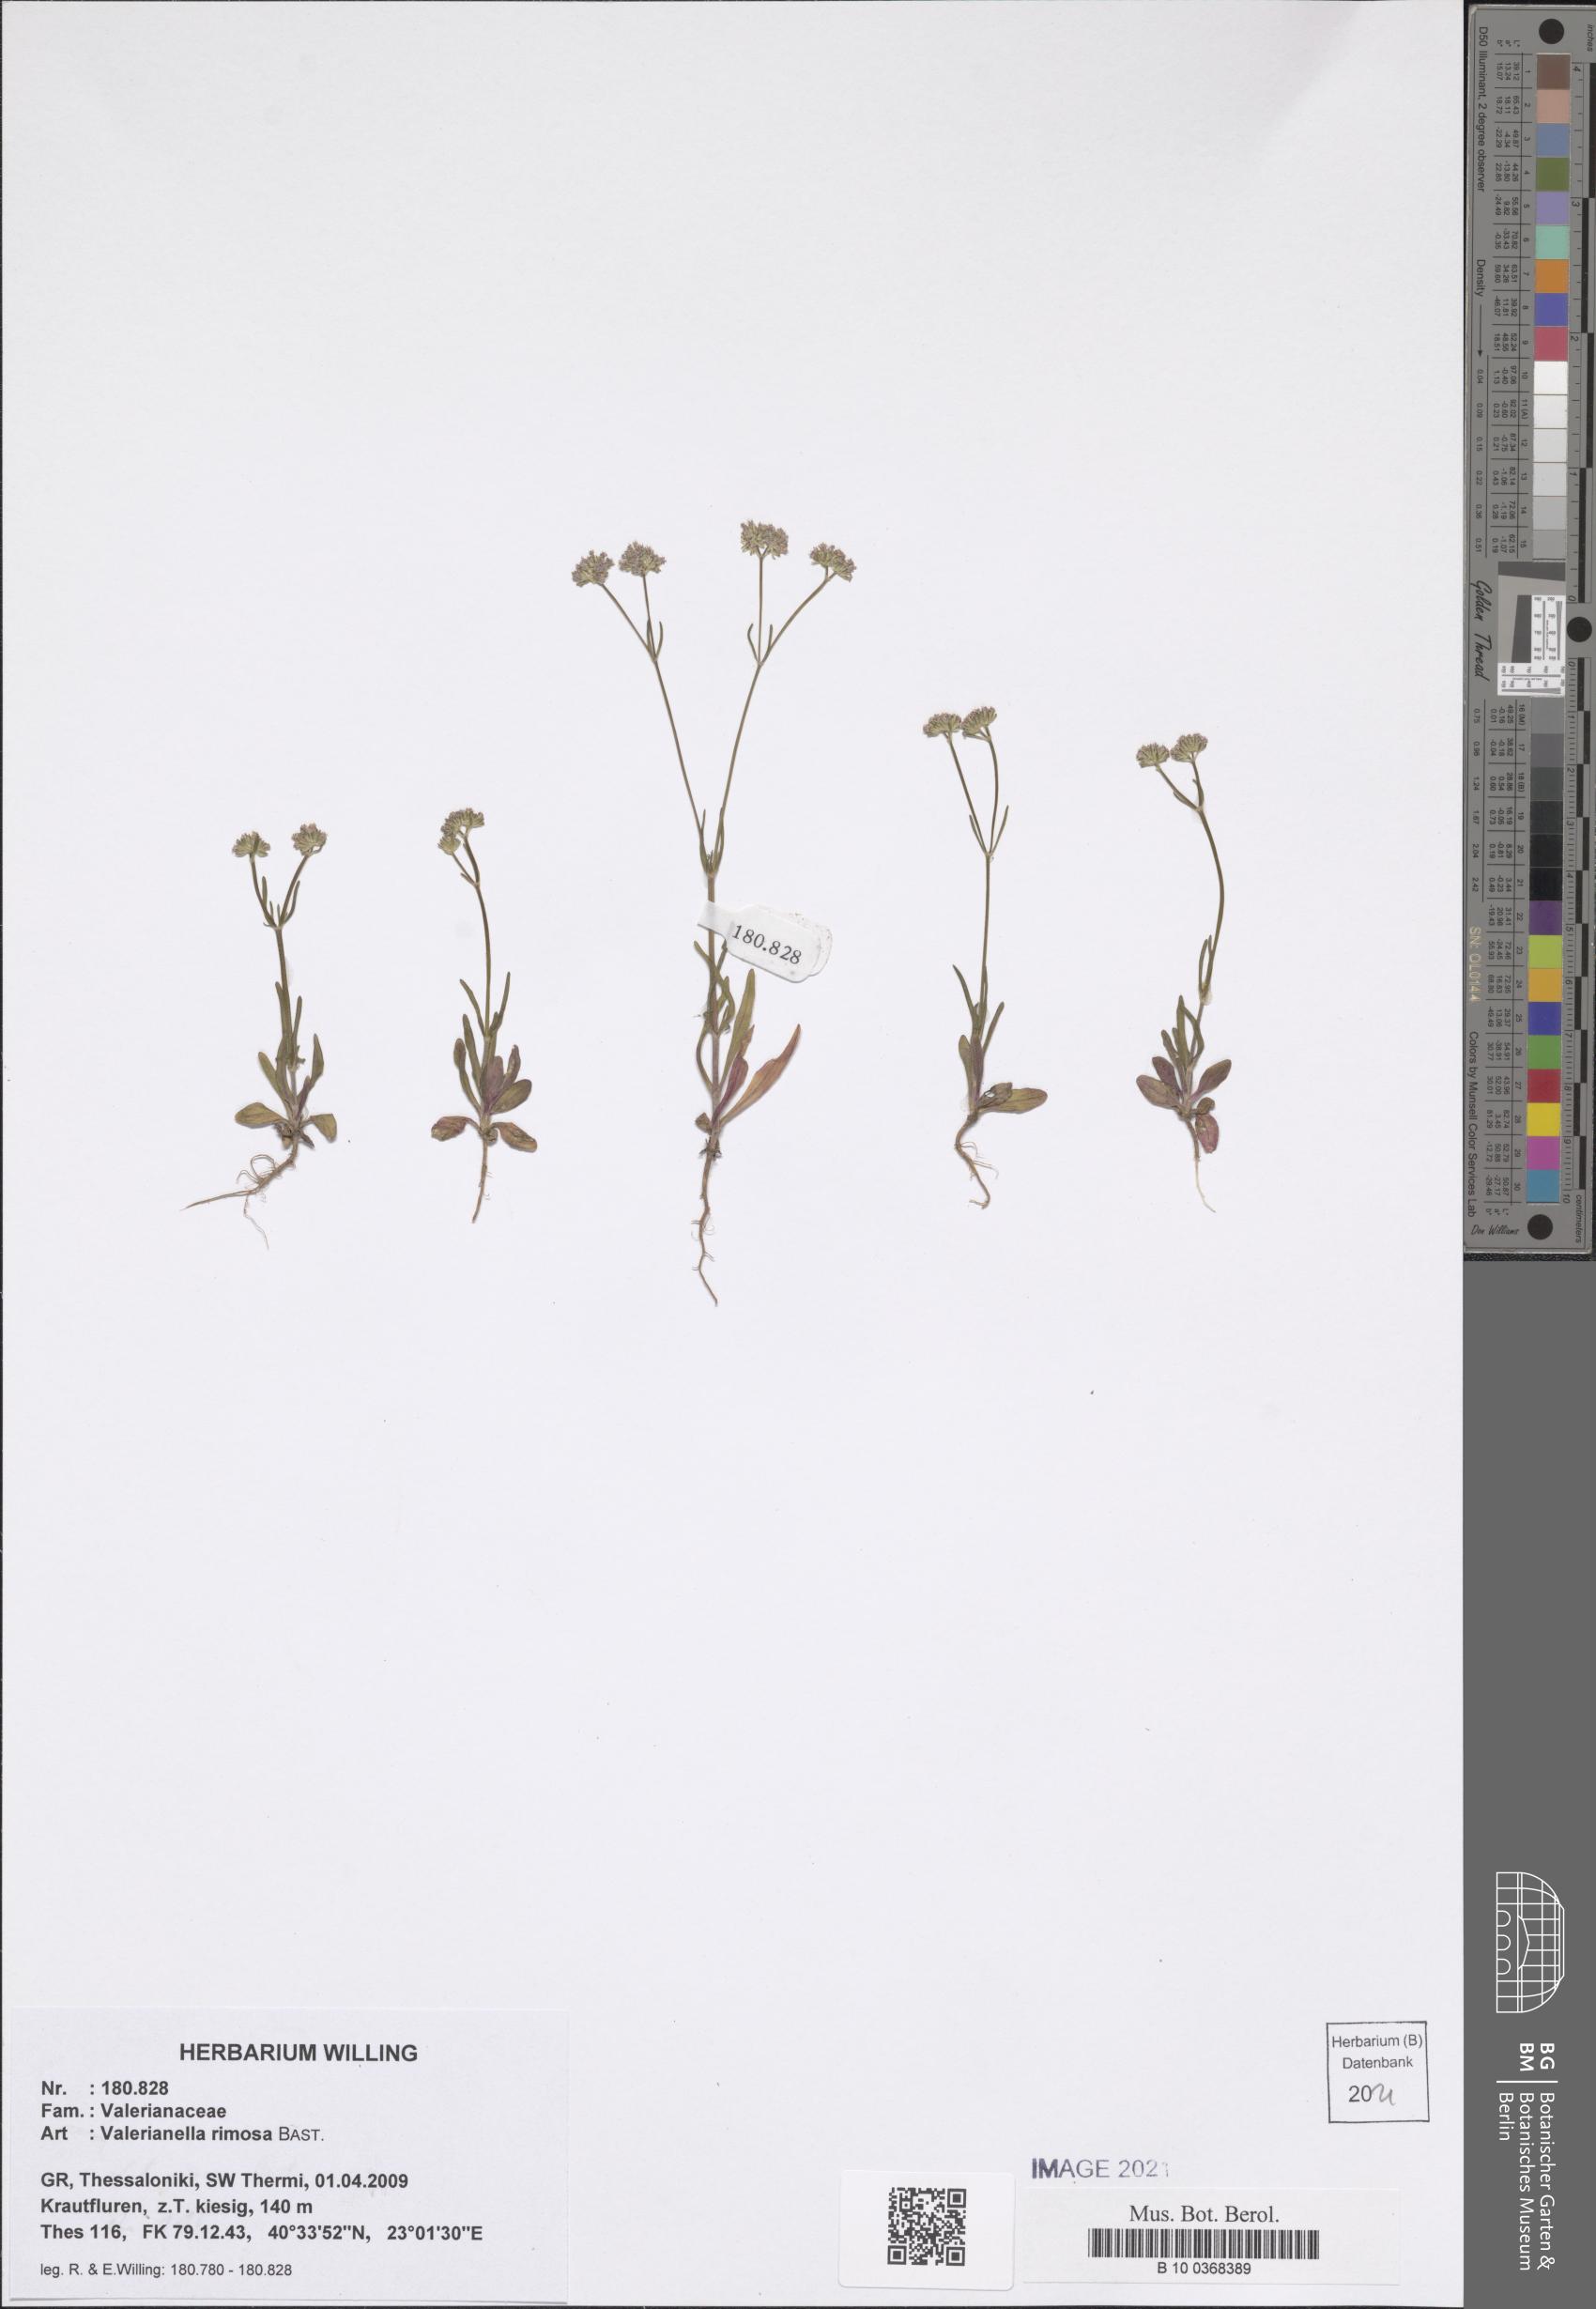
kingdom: Plantae
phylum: Tracheophyta
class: Magnoliopsida
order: Dipsacales
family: Caprifoliaceae
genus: Valerianella
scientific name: Valerianella rimosa
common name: Broad-fruited cornsalad
